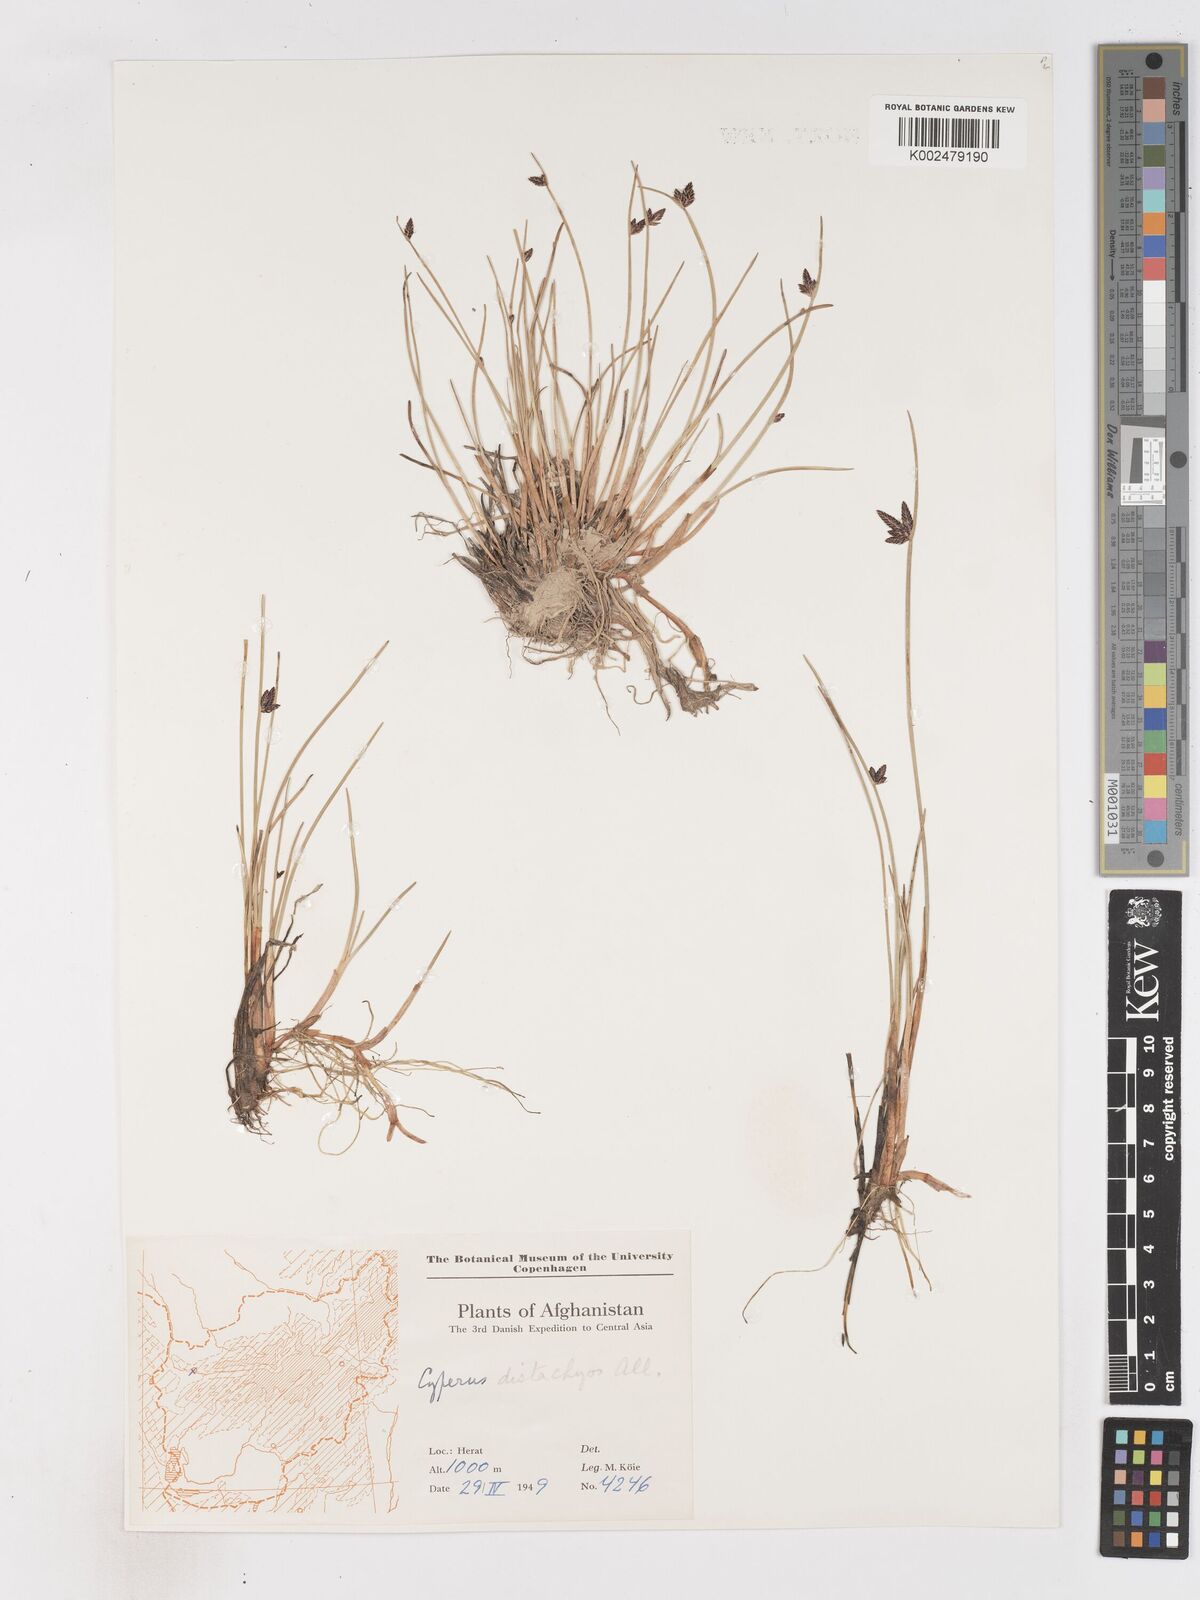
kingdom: Plantae
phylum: Tracheophyta
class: Liliopsida
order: Poales
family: Cyperaceae
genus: Cyperus
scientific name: Cyperus laevigatus
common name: Smooth flat sedge
